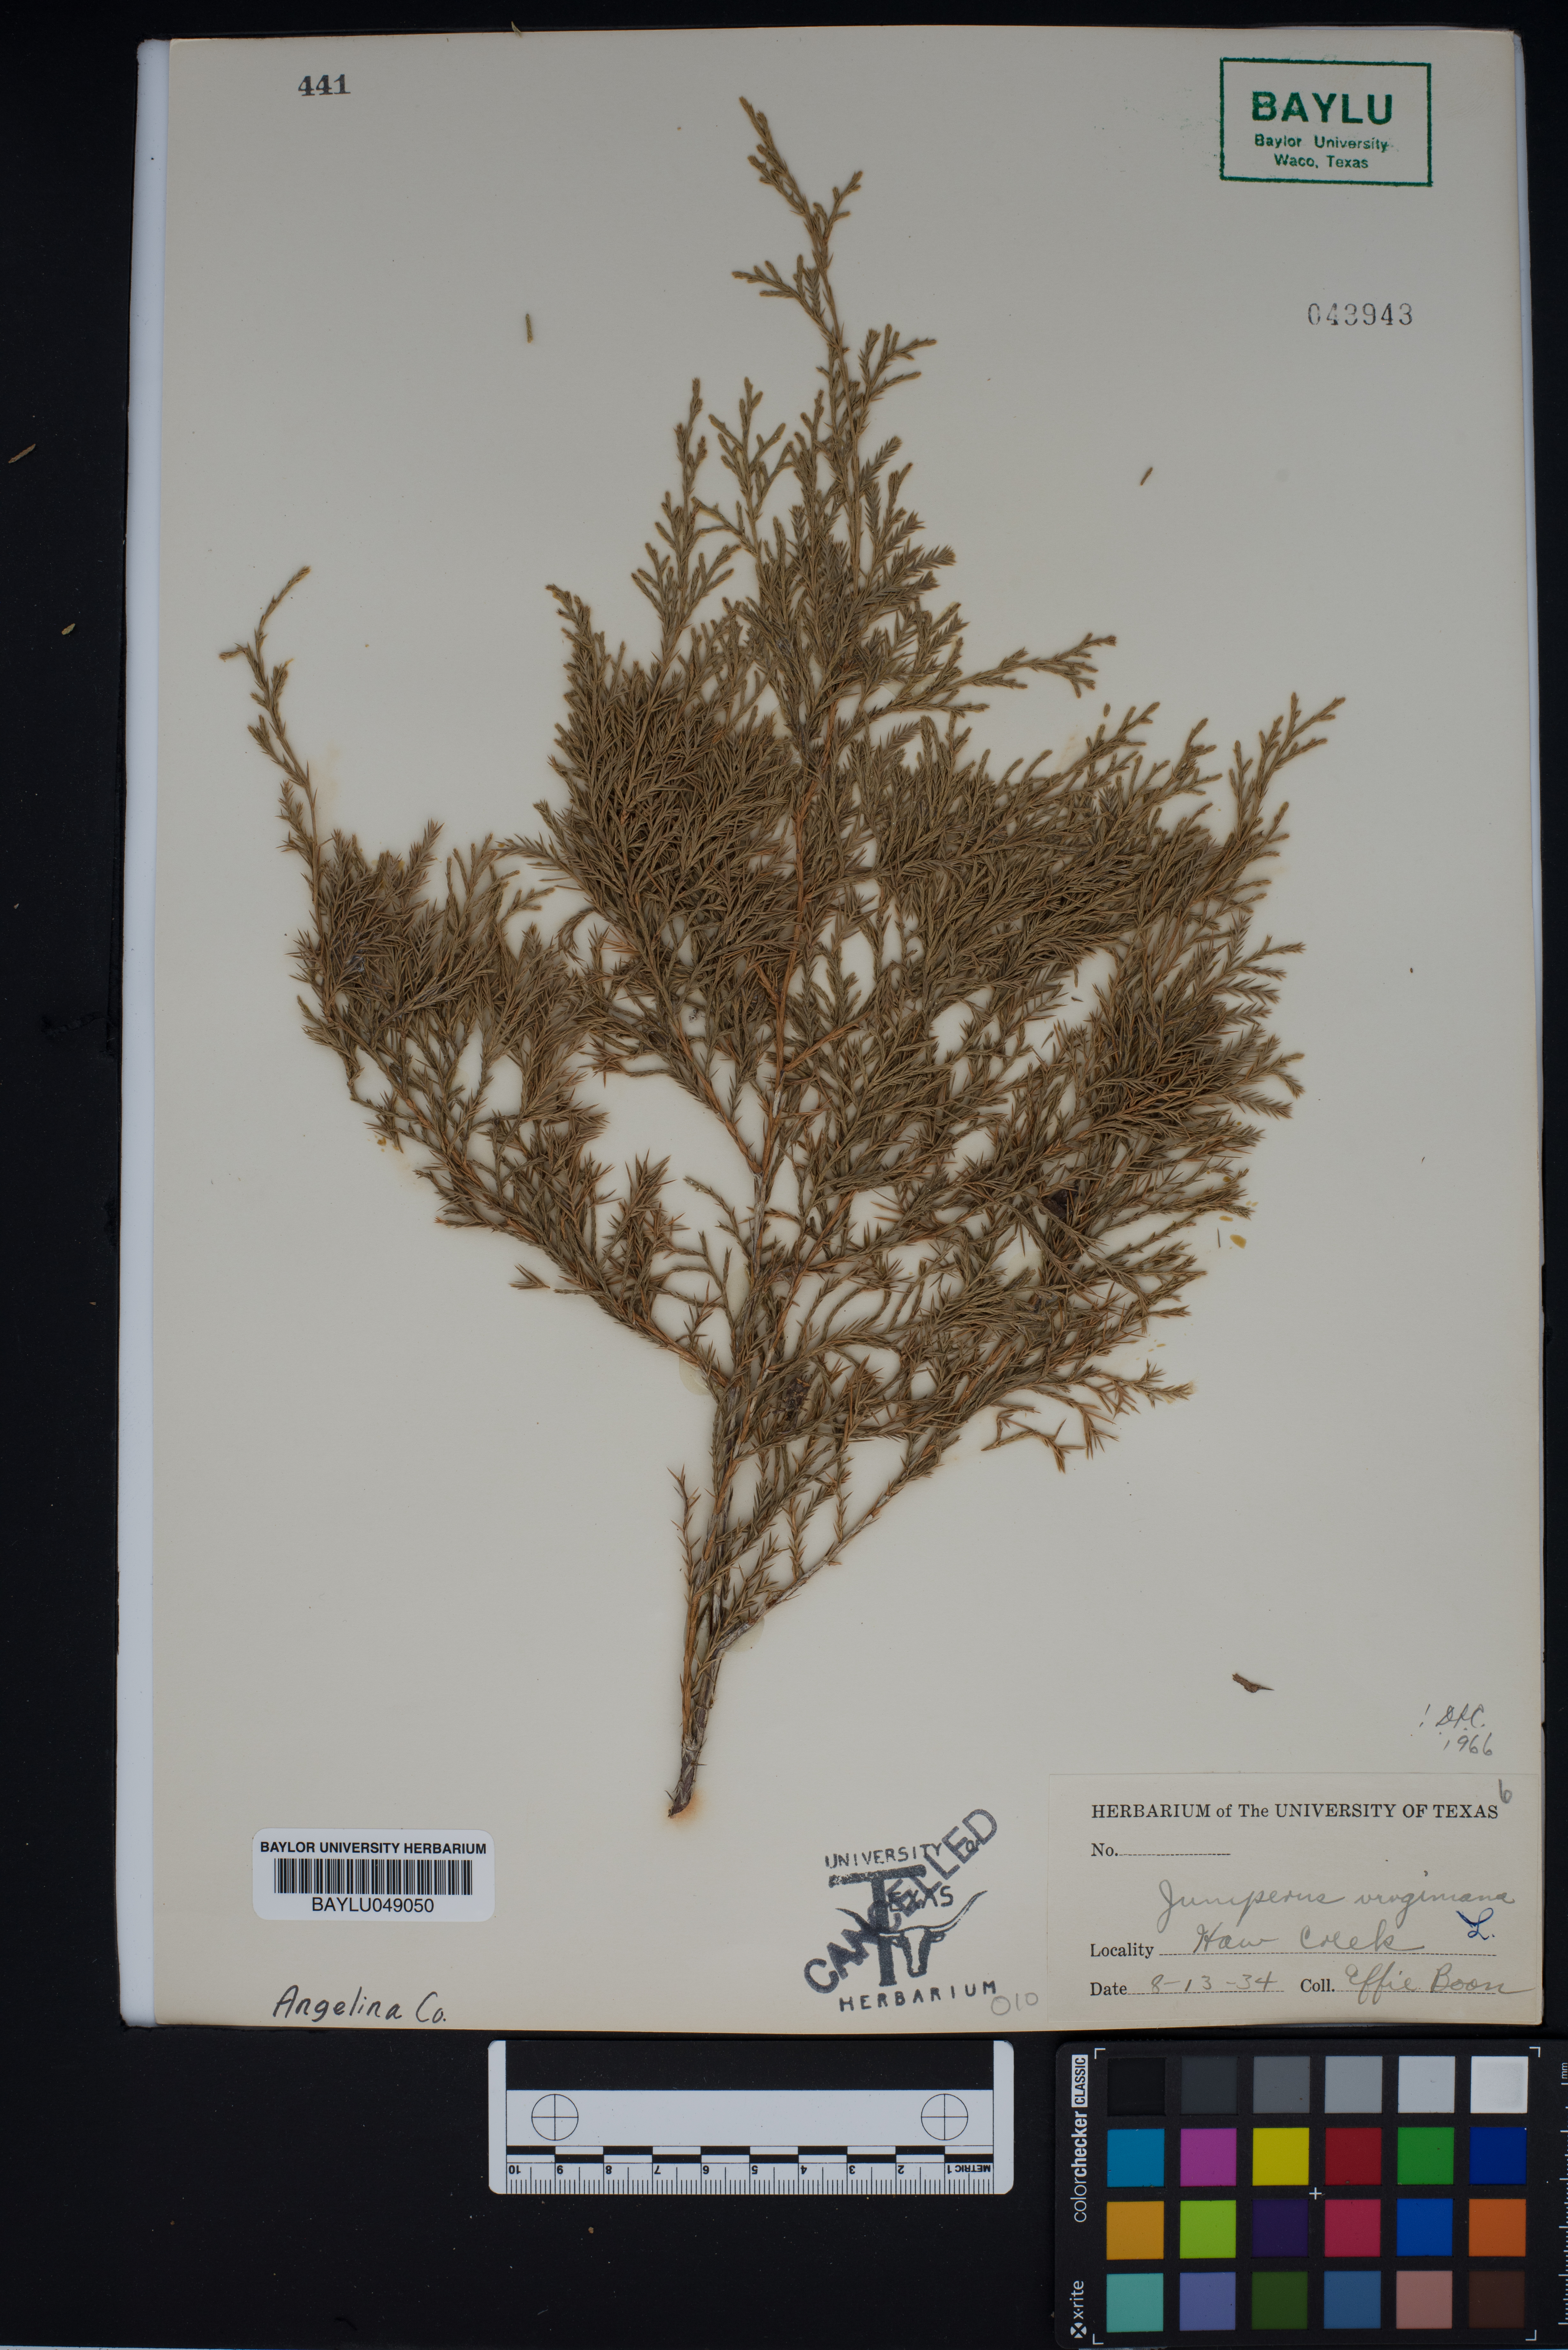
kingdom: Plantae
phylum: Tracheophyta
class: Pinopsida
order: Pinales
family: Cupressaceae
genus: Juniperus
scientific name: Juniperus virginiana
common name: Red juniper
